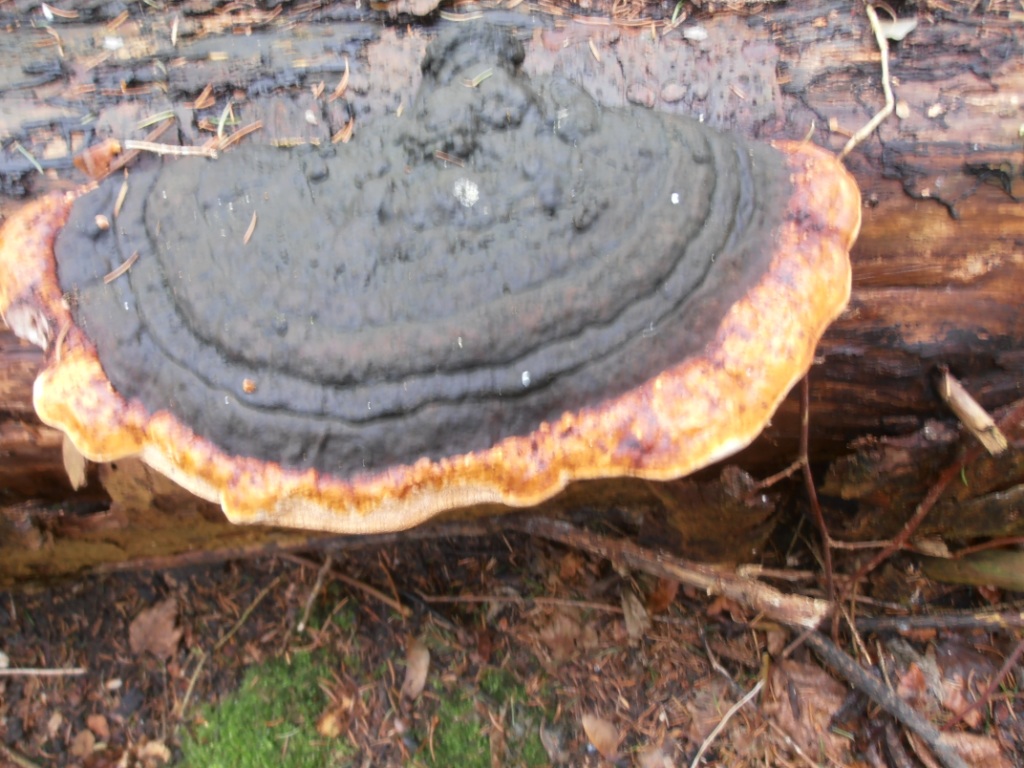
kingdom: Fungi
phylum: Basidiomycota
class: Agaricomycetes
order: Polyporales
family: Fomitopsidaceae
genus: Fomitopsis
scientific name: Fomitopsis pinicola
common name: randbæltet hovporesvamp
